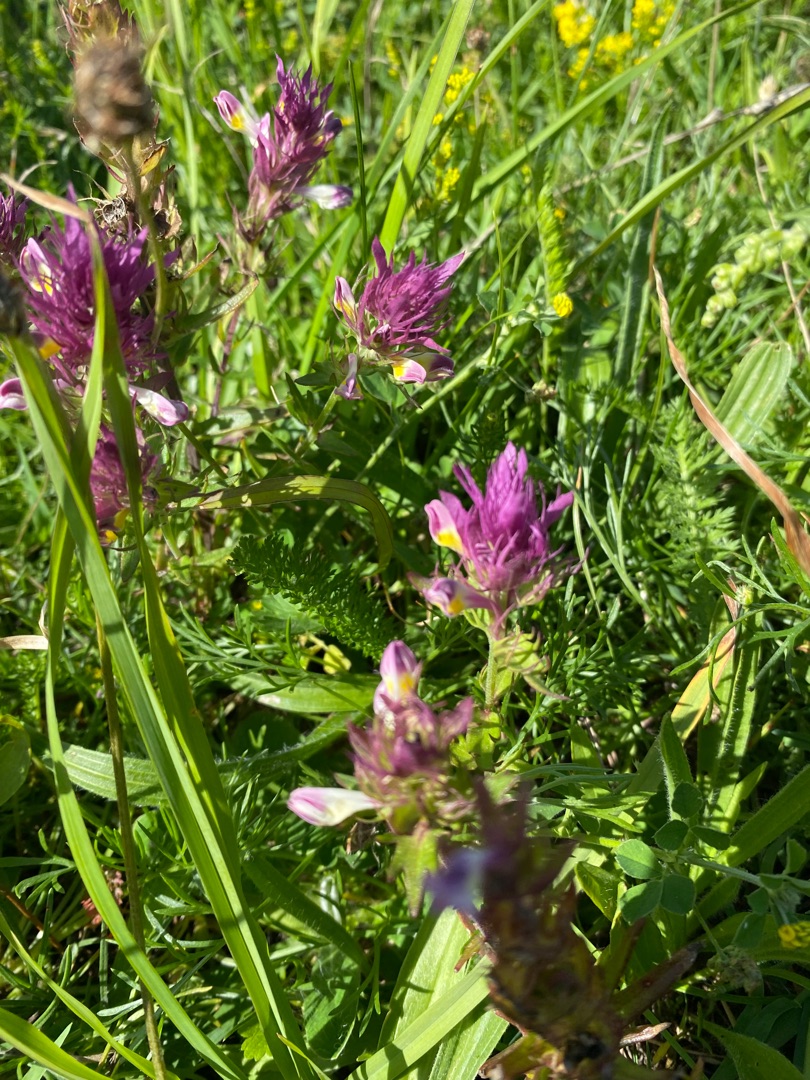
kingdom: Plantae
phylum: Tracheophyta
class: Magnoliopsida
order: Lamiales
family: Orobanchaceae
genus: Melampyrum
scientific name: Melampyrum arvense
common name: Ager-kohvede
